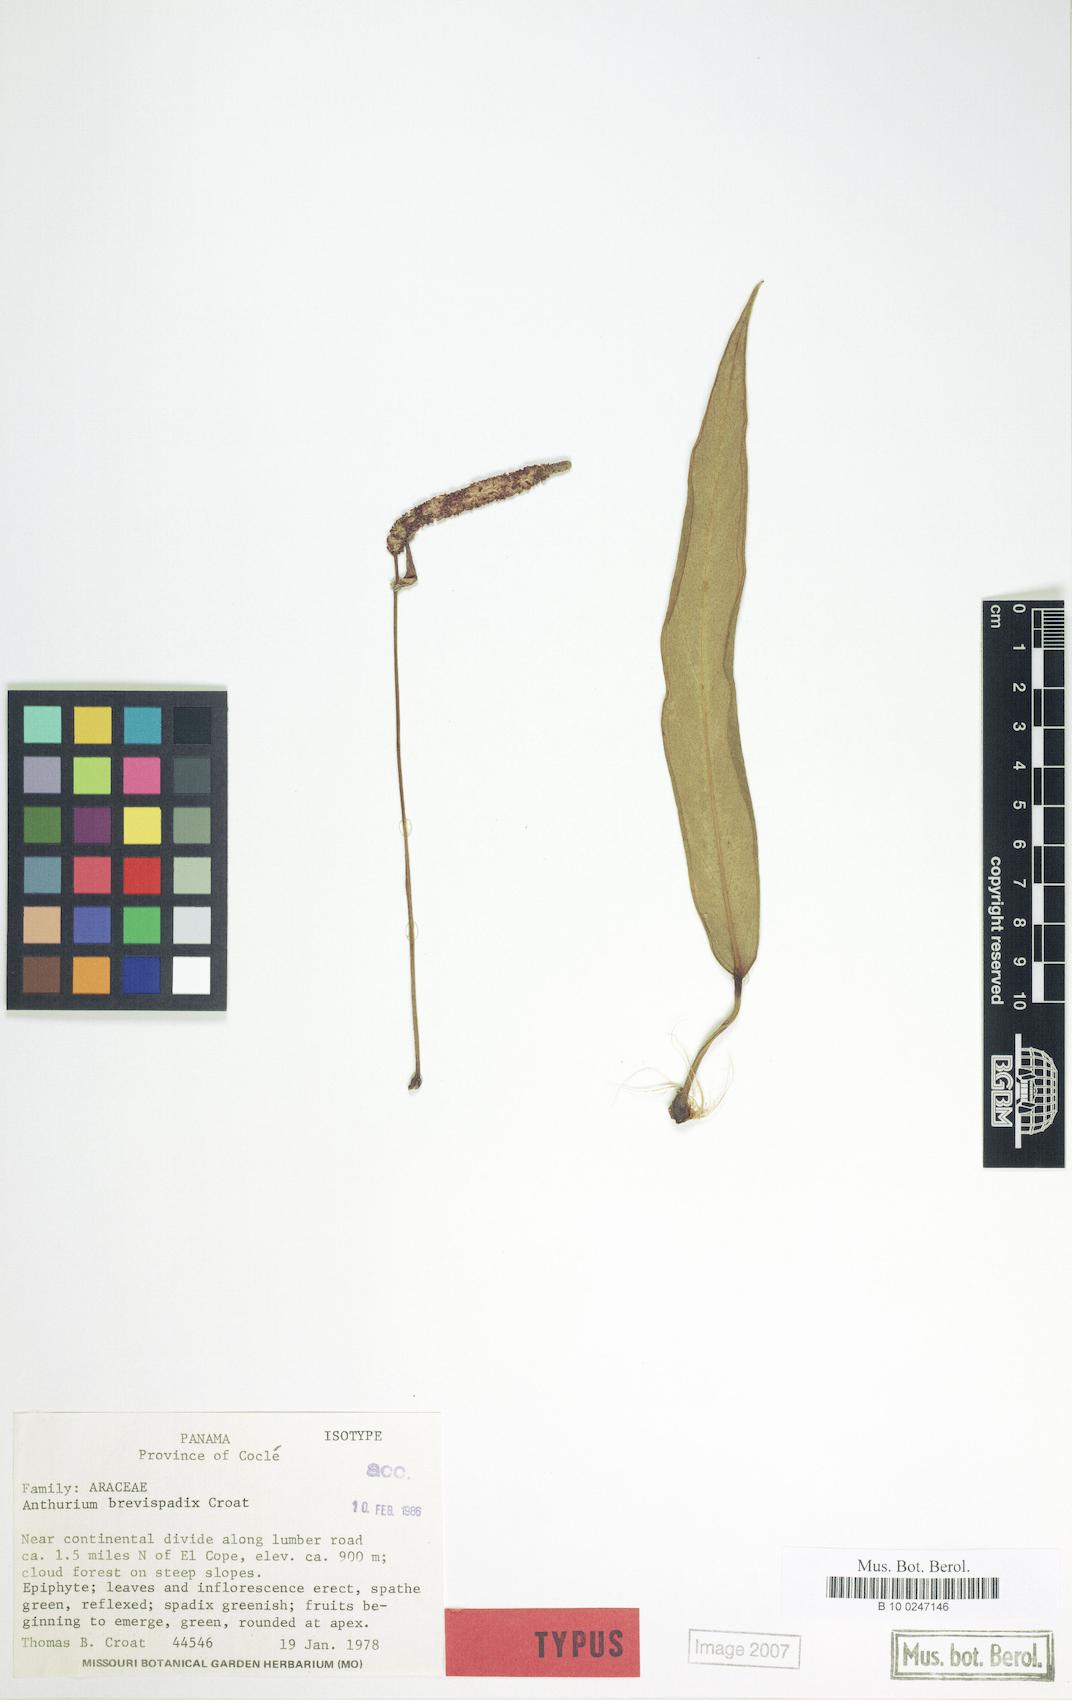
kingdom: Plantae
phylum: Tracheophyta
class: Liliopsida
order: Alismatales
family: Araceae
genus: Anthurium
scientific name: Anthurium brevispadix
